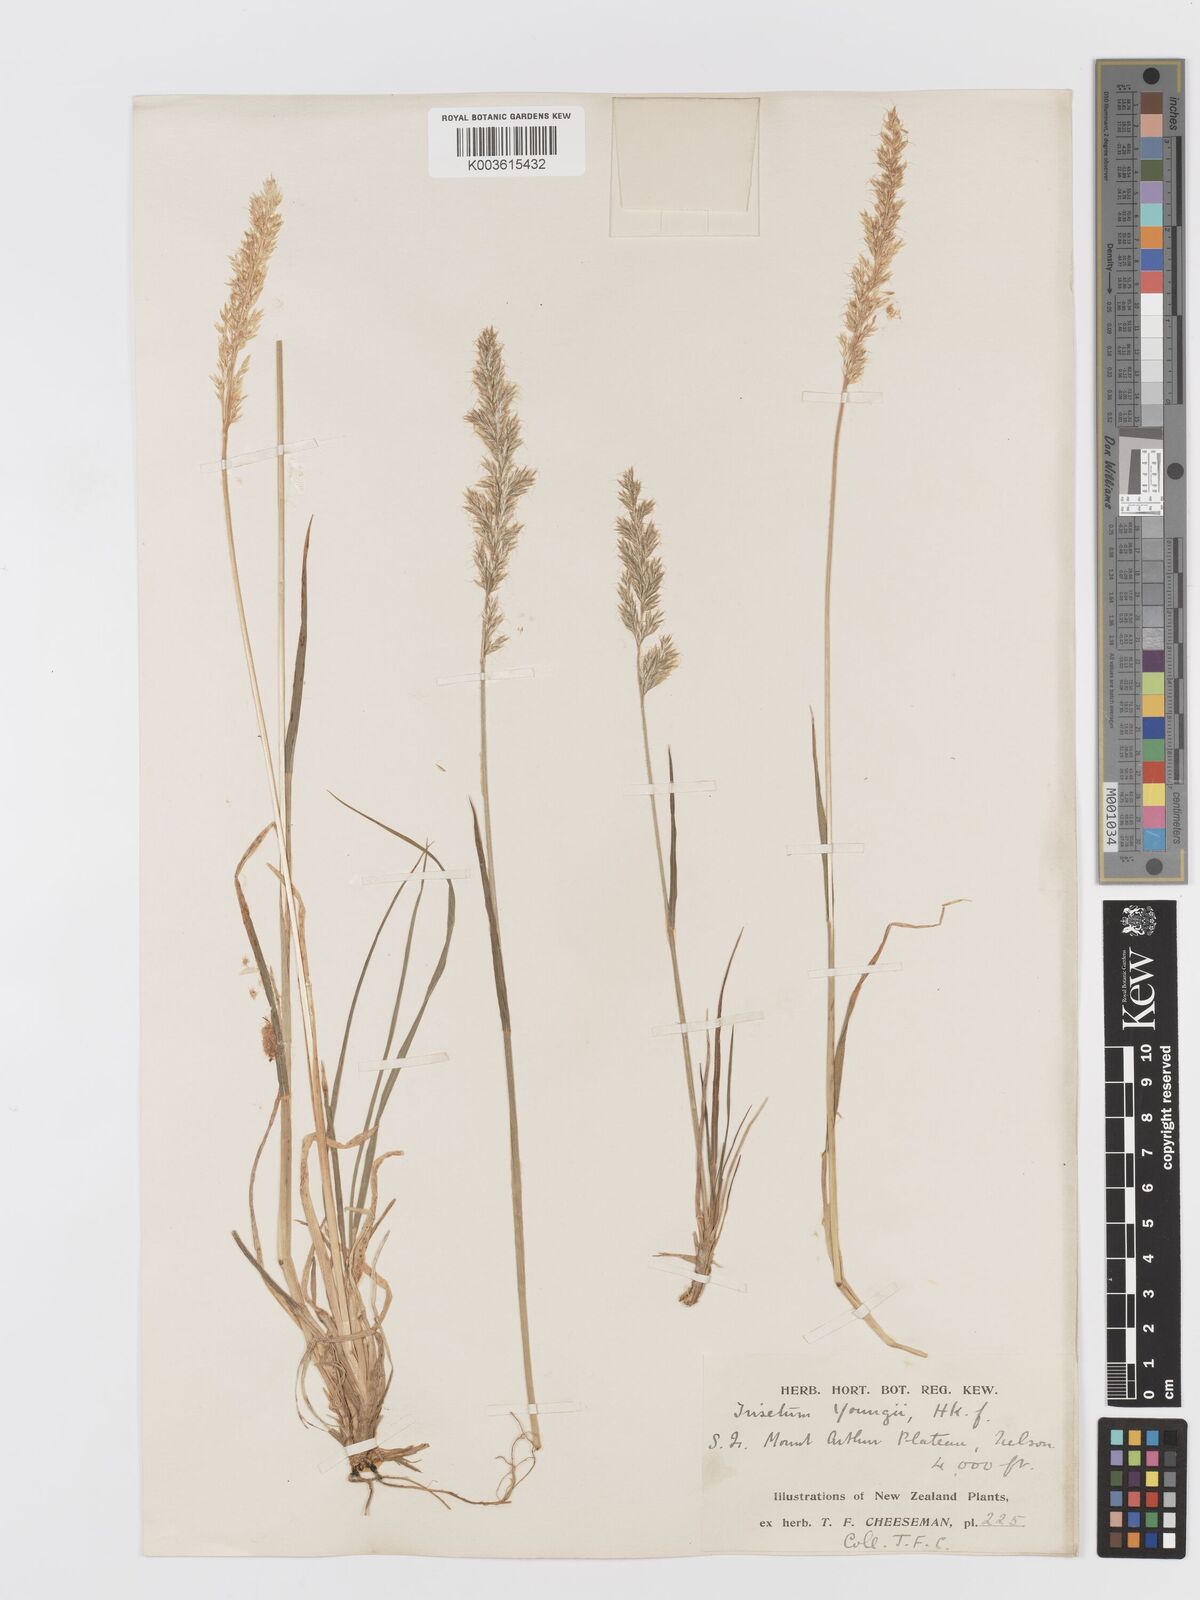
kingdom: Plantae
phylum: Tracheophyta
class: Liliopsida
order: Poales
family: Poaceae
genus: Koeleria
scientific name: Koeleria youngii
